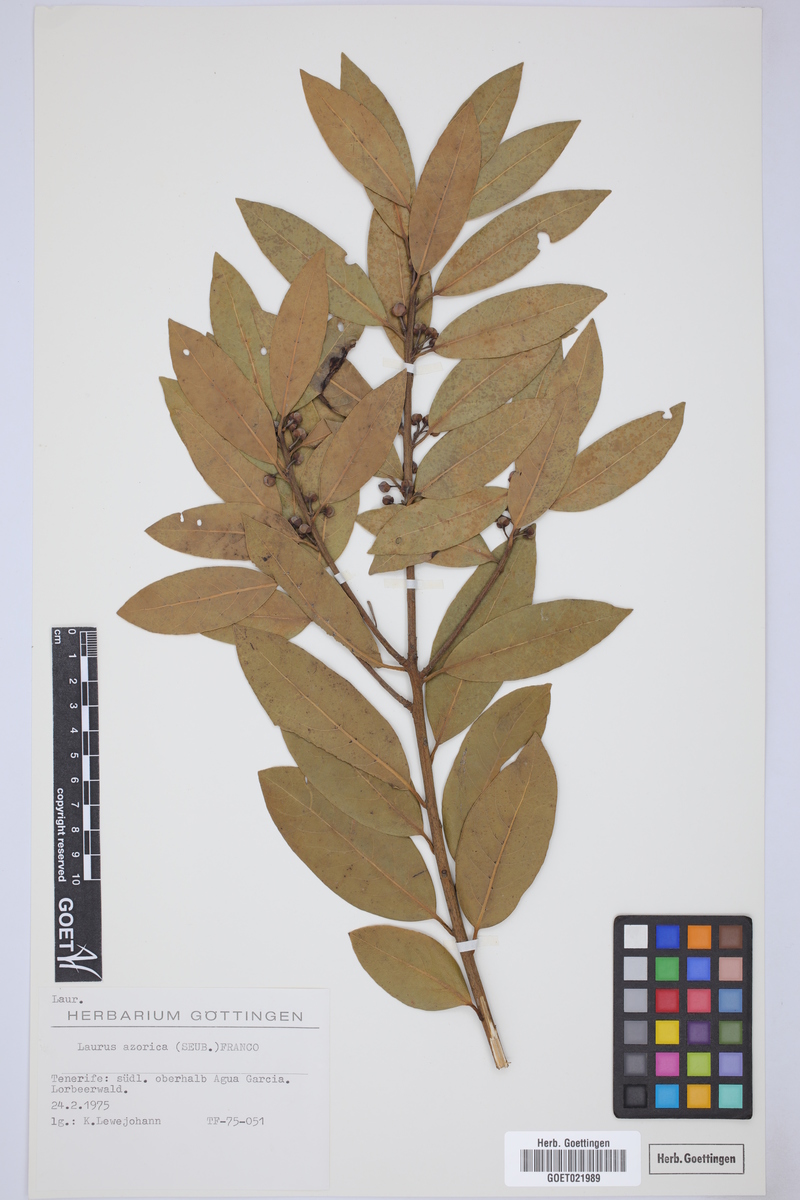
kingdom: Plantae
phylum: Tracheophyta
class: Magnoliopsida
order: Laurales
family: Lauraceae
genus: Laurus
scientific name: Laurus azorica
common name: Macaronesian laurel
